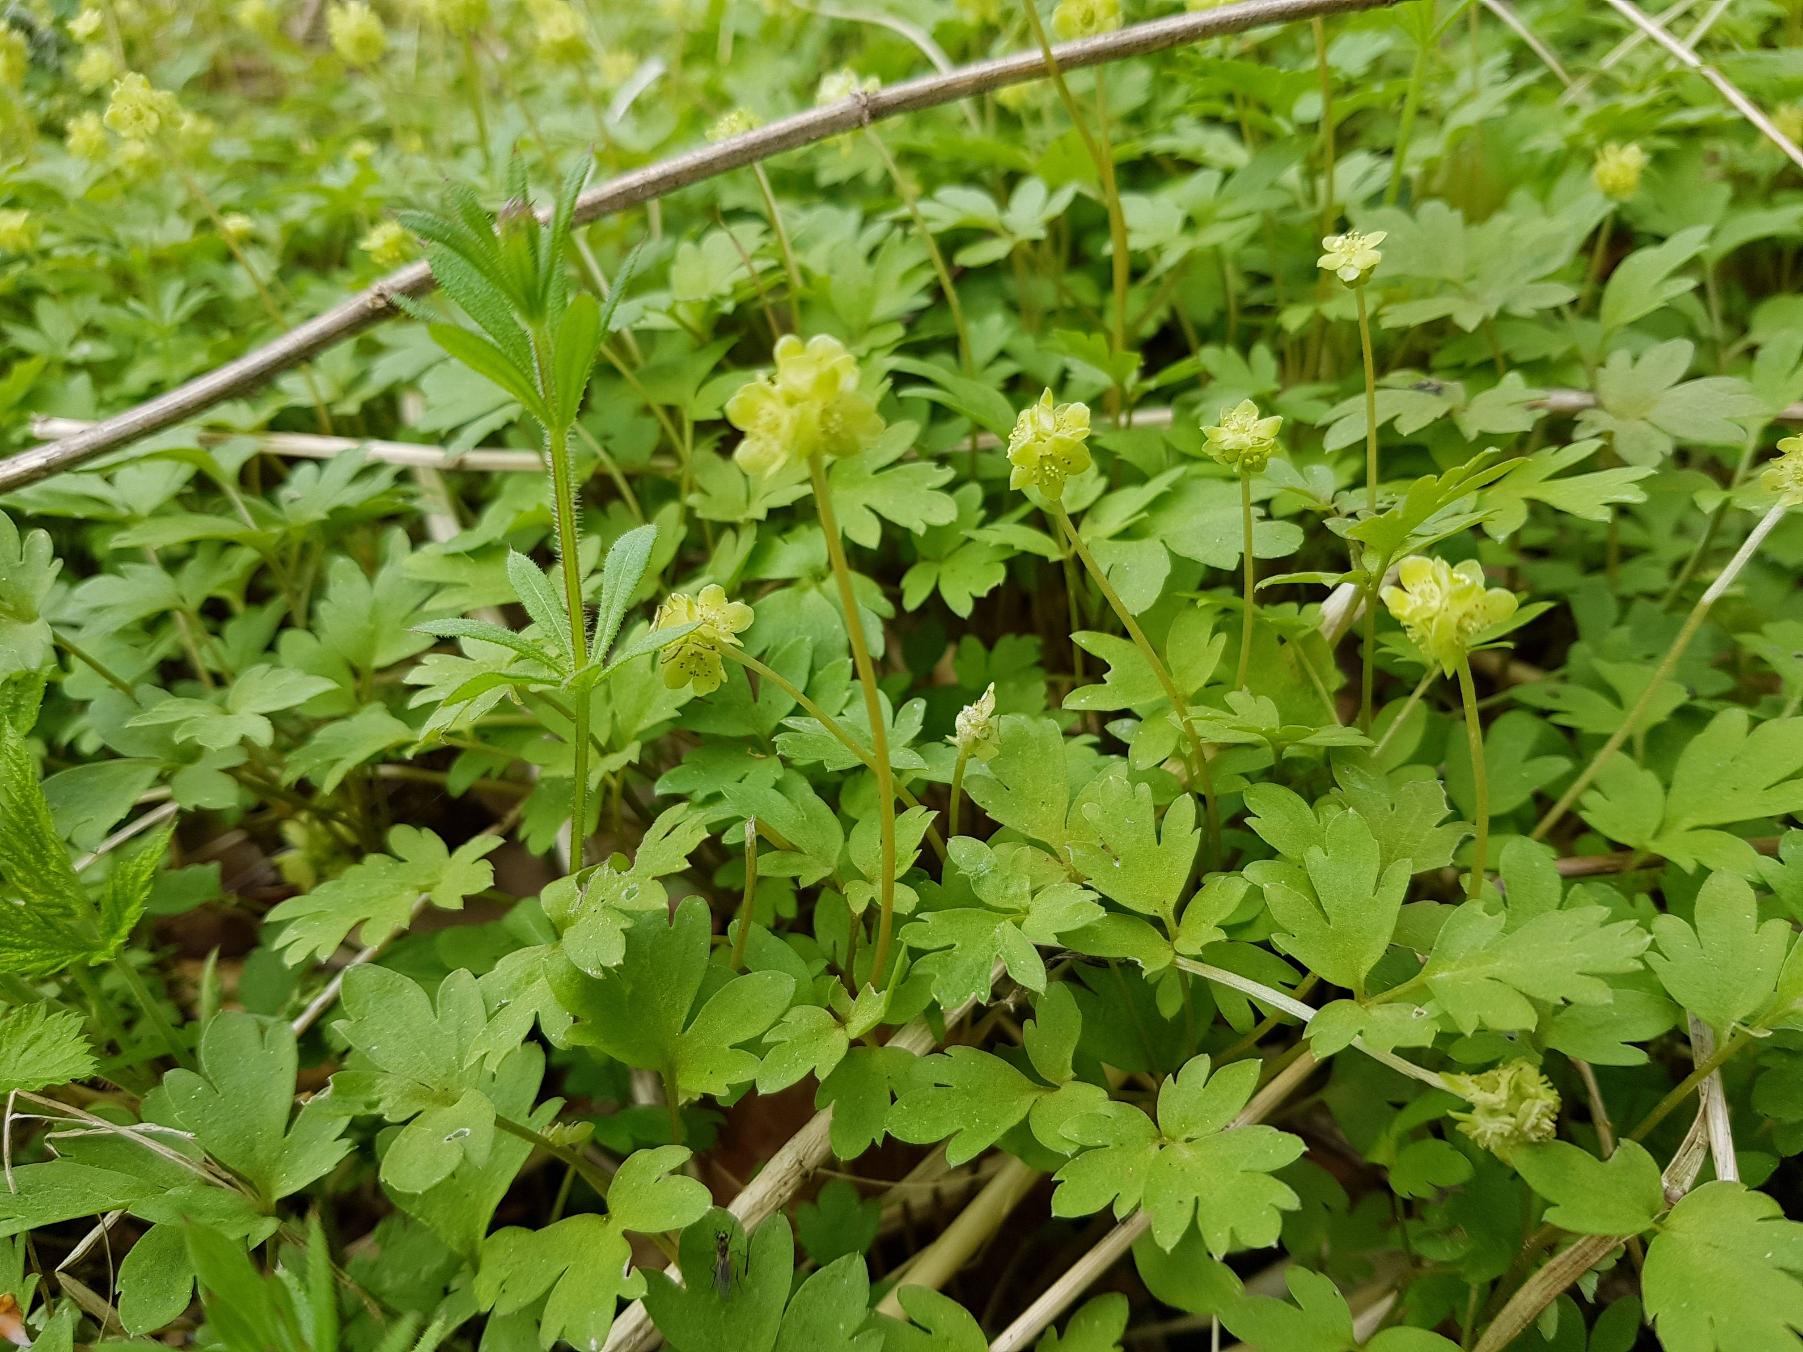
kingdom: Plantae
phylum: Tracheophyta
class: Magnoliopsida
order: Dipsacales
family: Viburnaceae
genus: Adoxa
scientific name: Adoxa moschatellina
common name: Desmerurt
